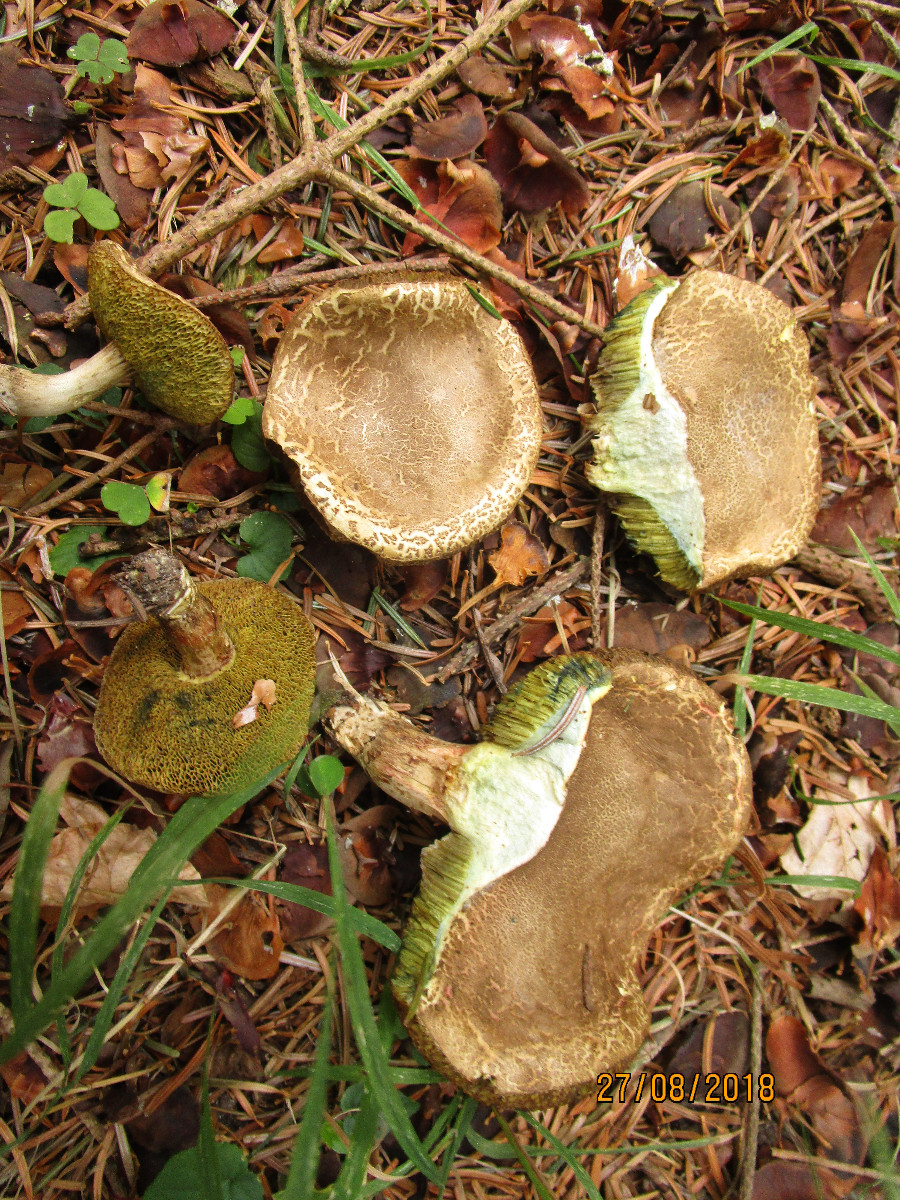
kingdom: Fungi
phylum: Basidiomycota
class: Agaricomycetes
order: Boletales
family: Boletaceae
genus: Xerocomellus
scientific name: Xerocomellus porosporus
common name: hvidsprukken rørhat
